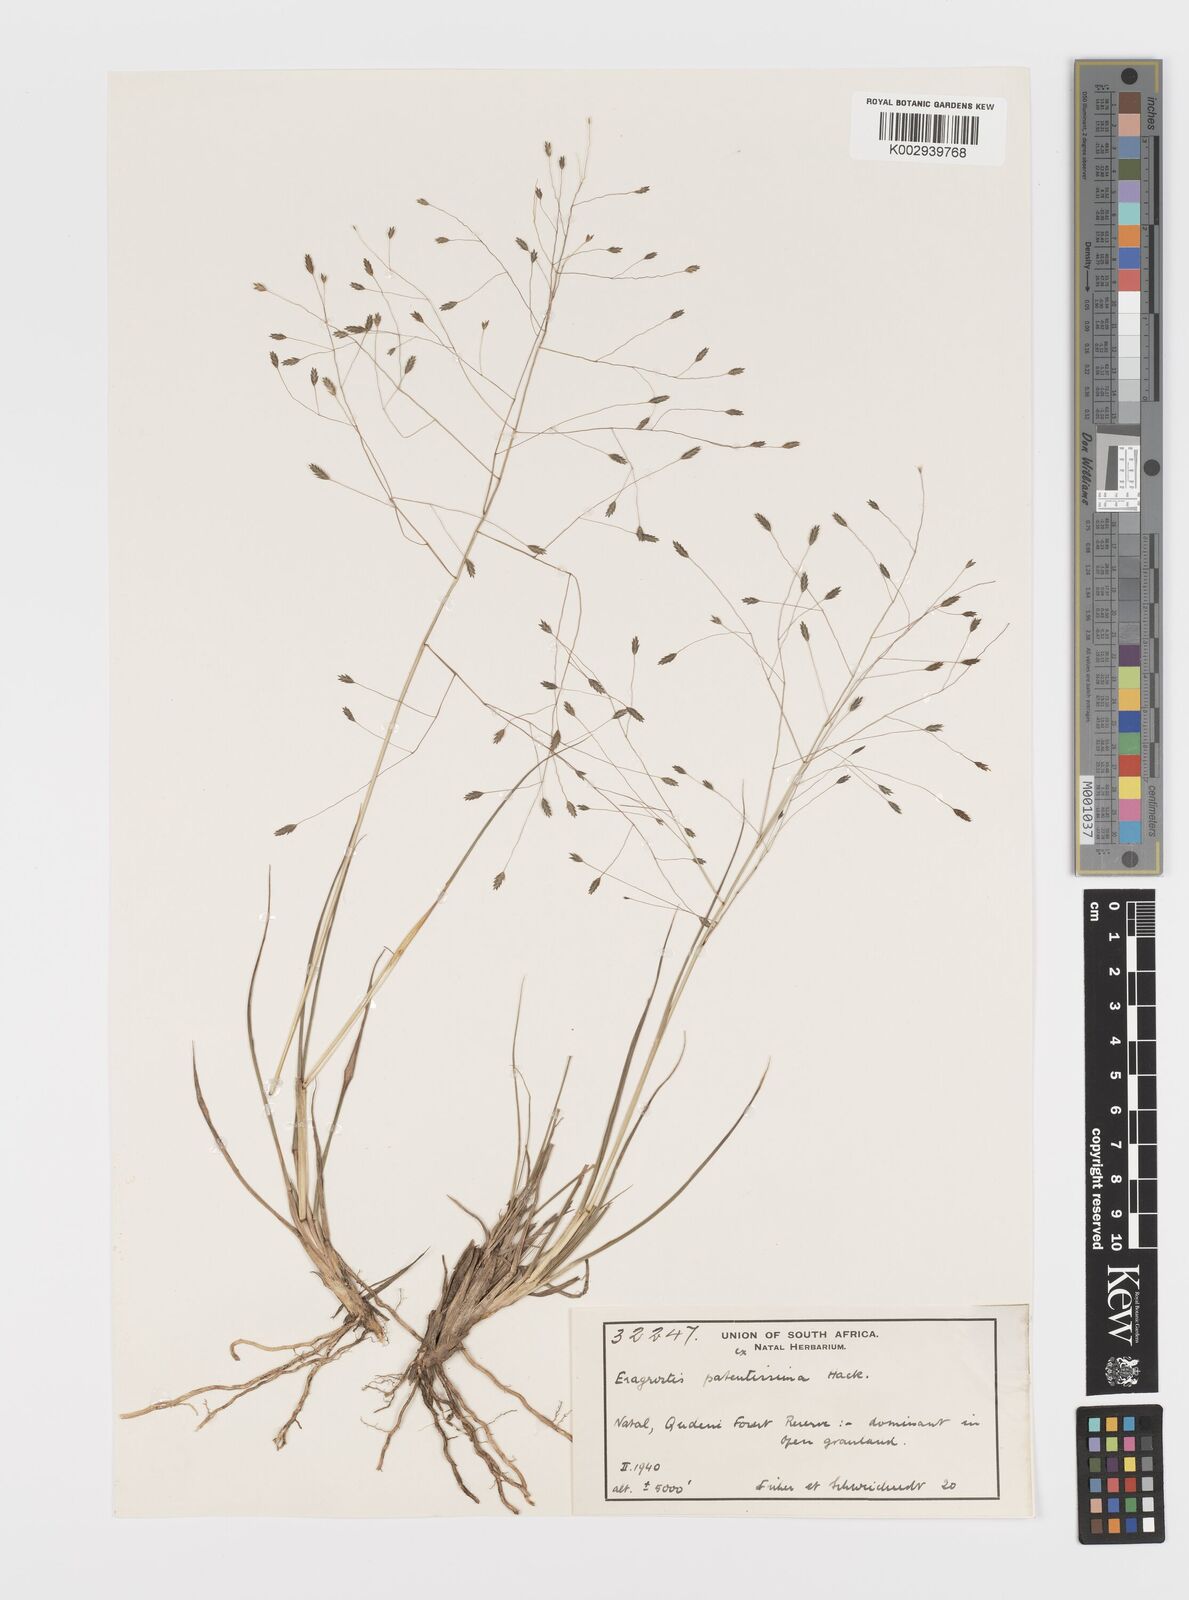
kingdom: Plantae
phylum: Tracheophyta
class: Liliopsida
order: Poales
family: Poaceae
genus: Eragrostis
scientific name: Eragrostis patentissima
